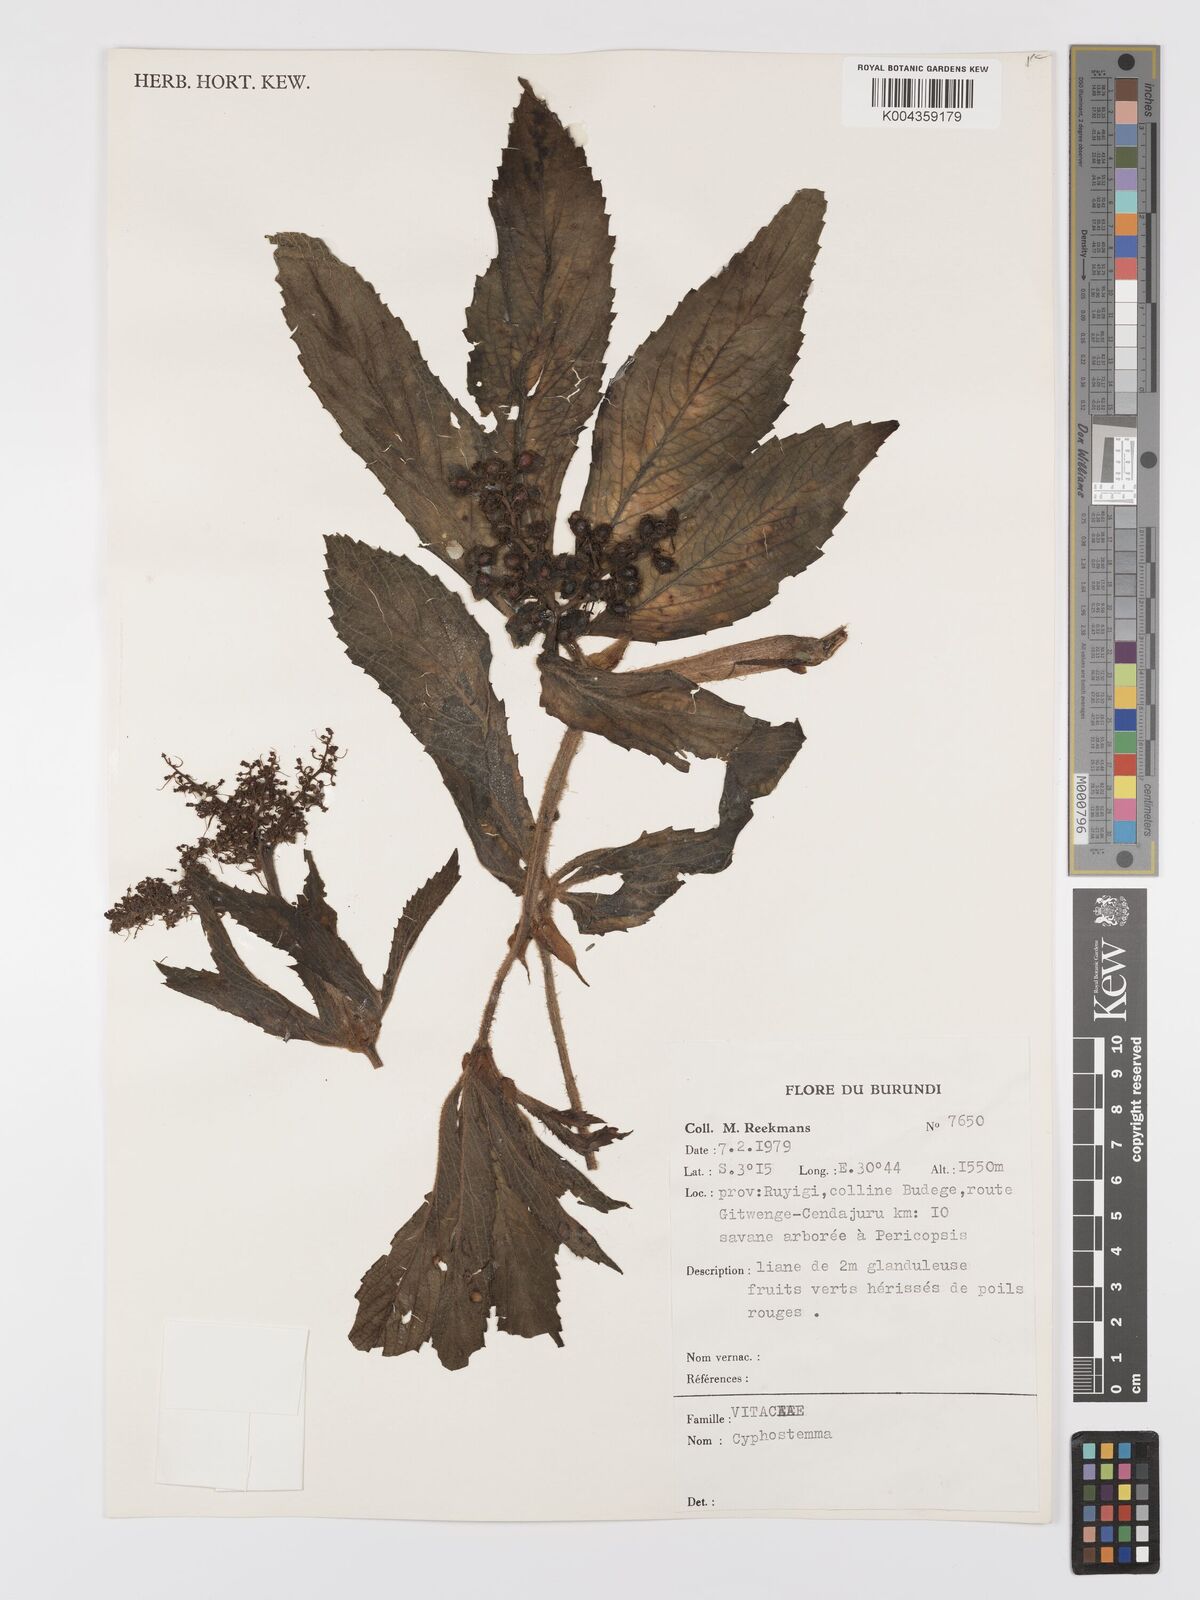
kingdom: Plantae
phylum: Tracheophyta
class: Magnoliopsida
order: Vitales
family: Vitaceae
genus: Cyphostemma
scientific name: Cyphostemma
